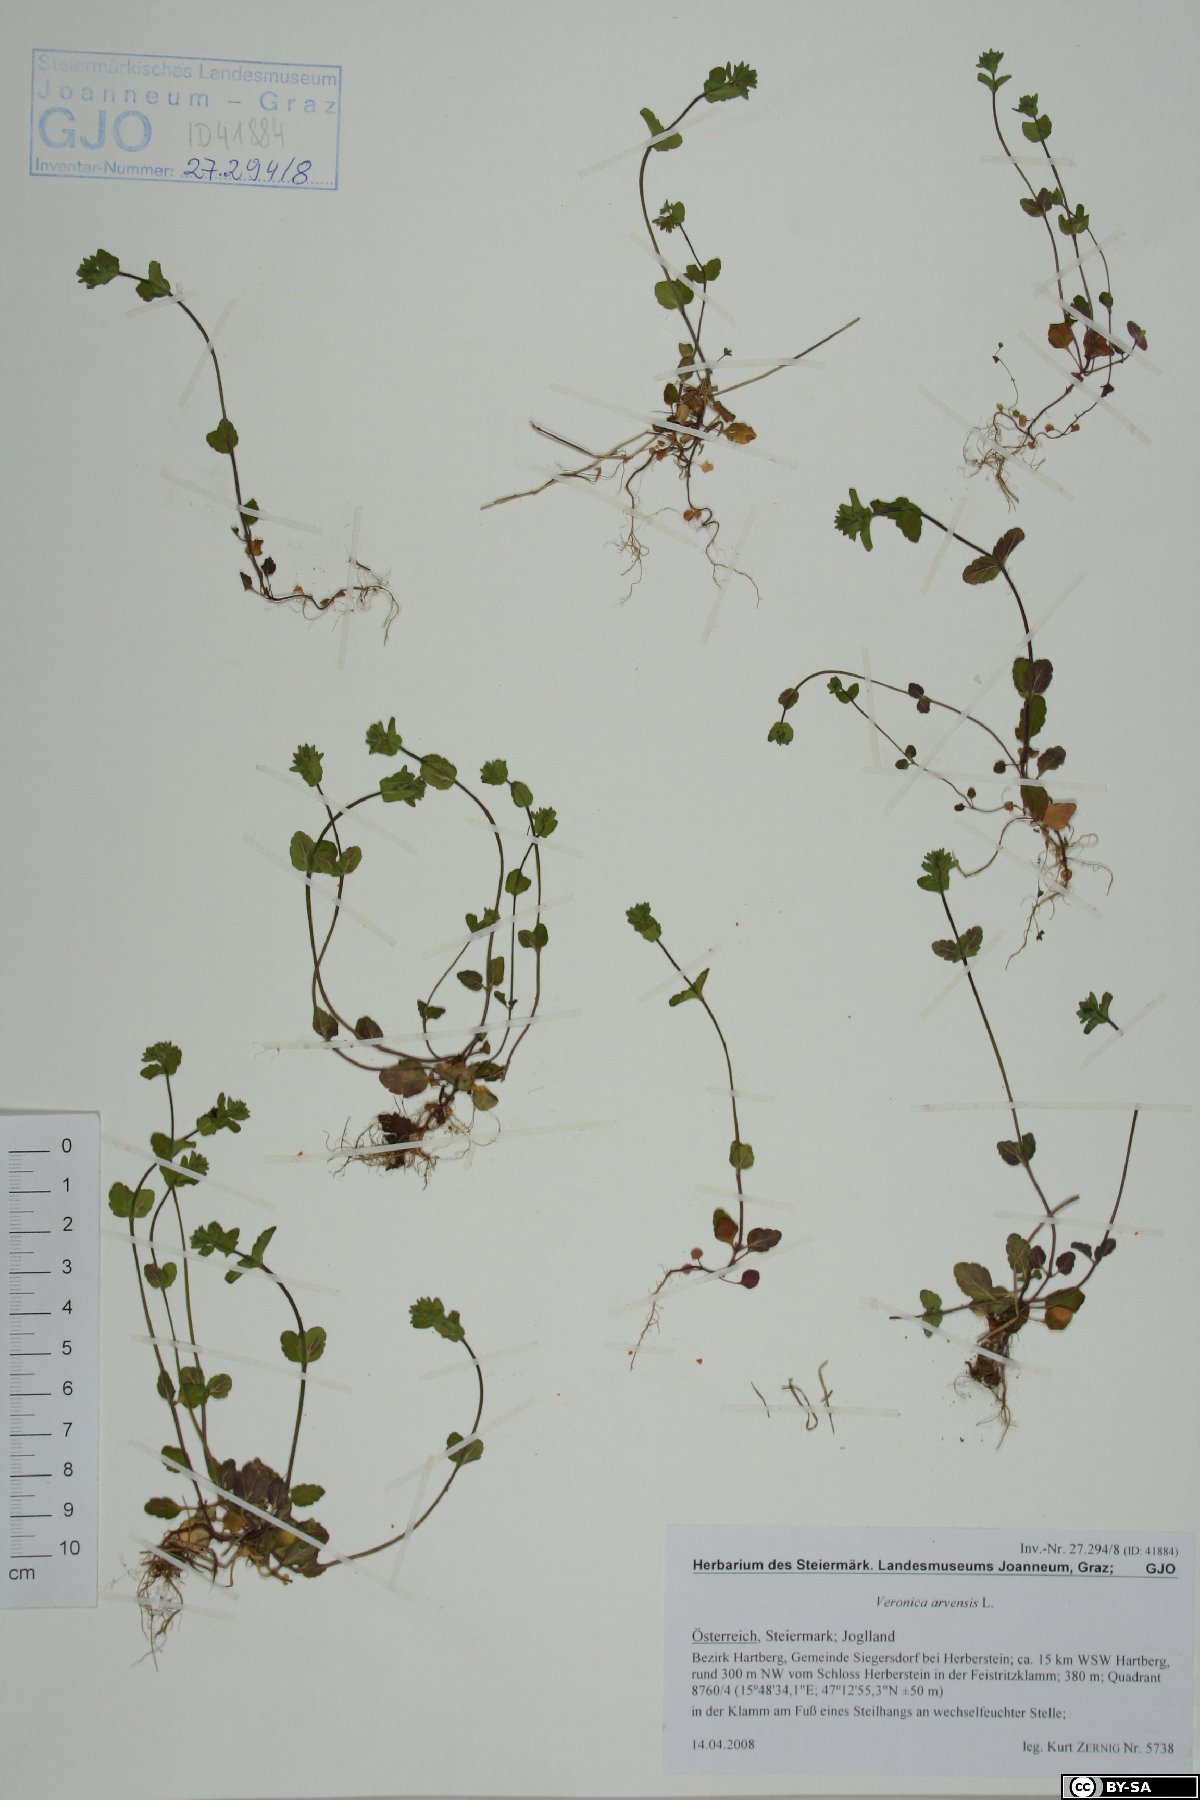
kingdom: Plantae
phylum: Tracheophyta
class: Magnoliopsida
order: Lamiales
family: Plantaginaceae
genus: Veronica
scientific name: Veronica arvensis
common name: Corn speedwell
